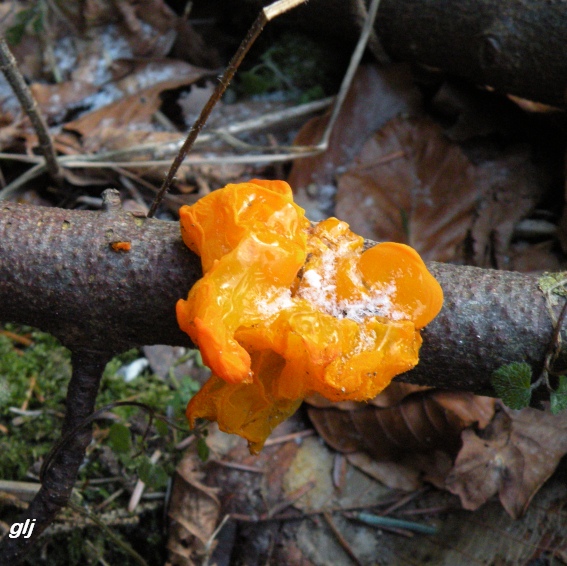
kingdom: Fungi
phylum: Basidiomycota
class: Tremellomycetes
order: Tremellales
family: Tremellaceae
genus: Tremella
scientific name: Tremella mesenterica
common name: gul bævresvamp
